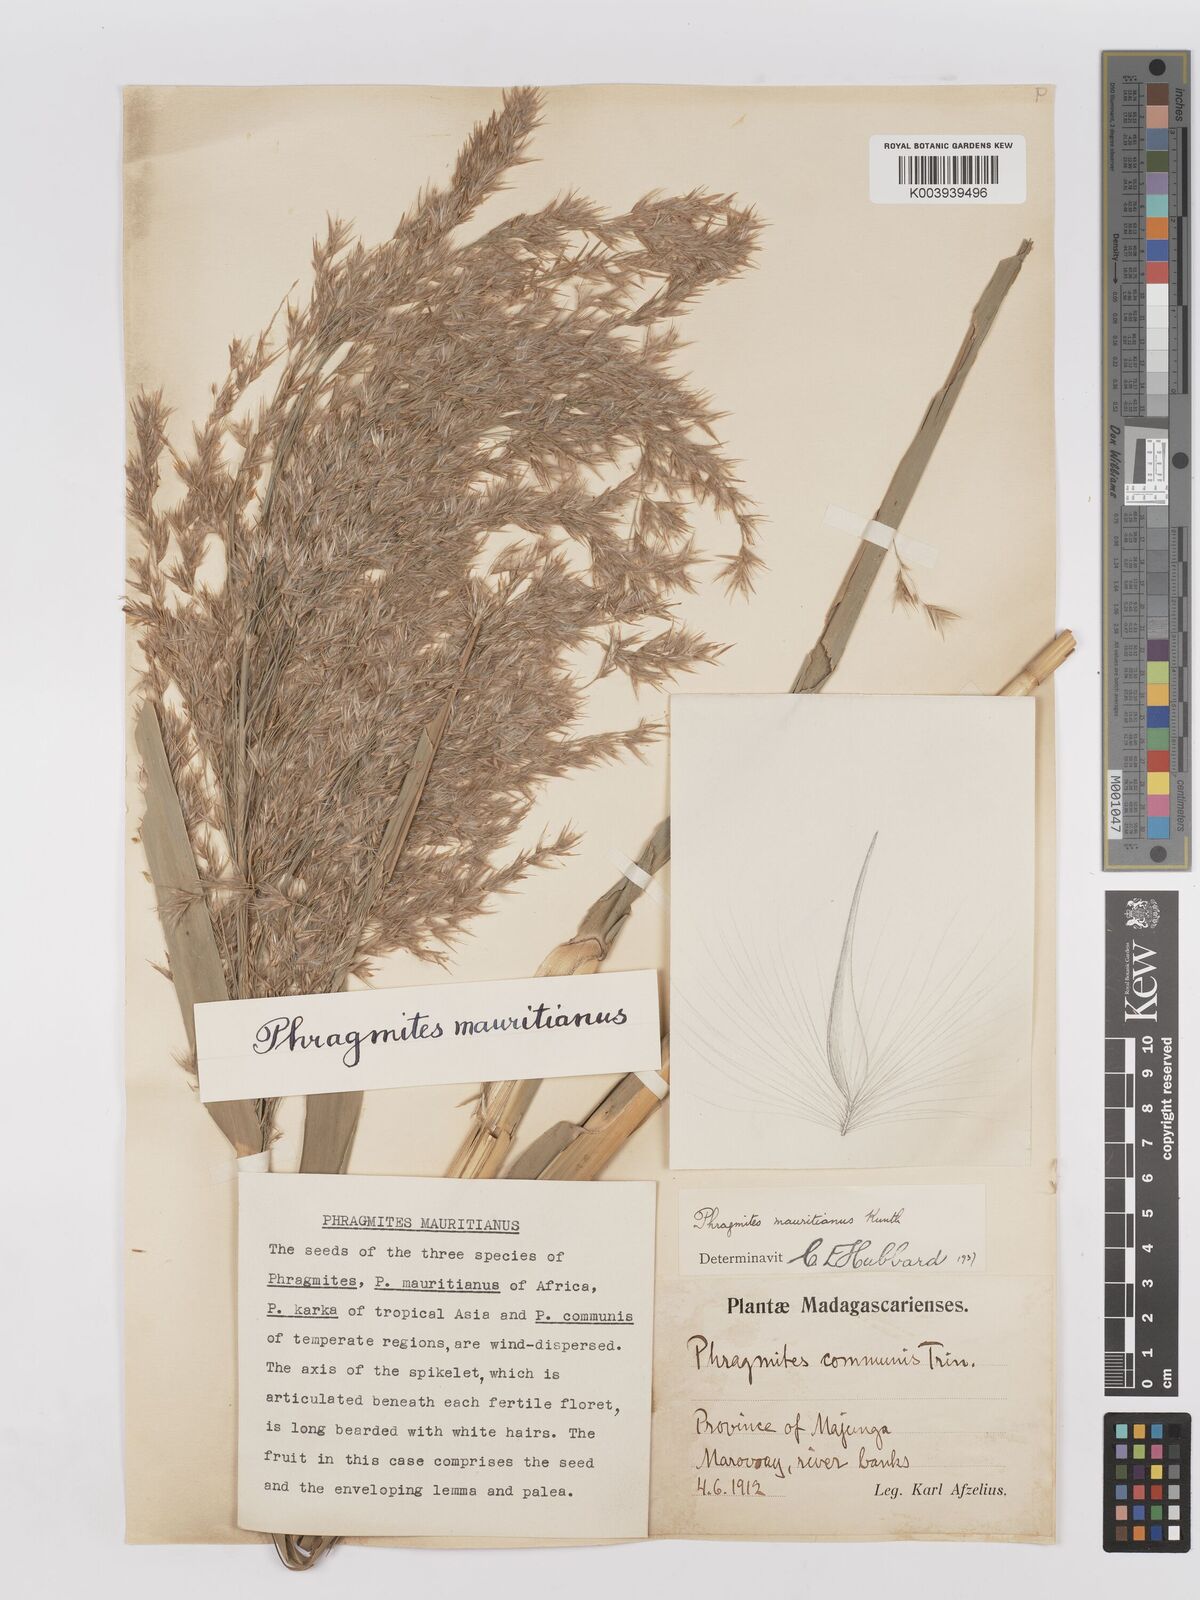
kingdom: Plantae
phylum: Tracheophyta
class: Liliopsida
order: Poales
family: Poaceae
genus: Phragmites
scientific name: Phragmites mauritianus
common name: Reed grass
